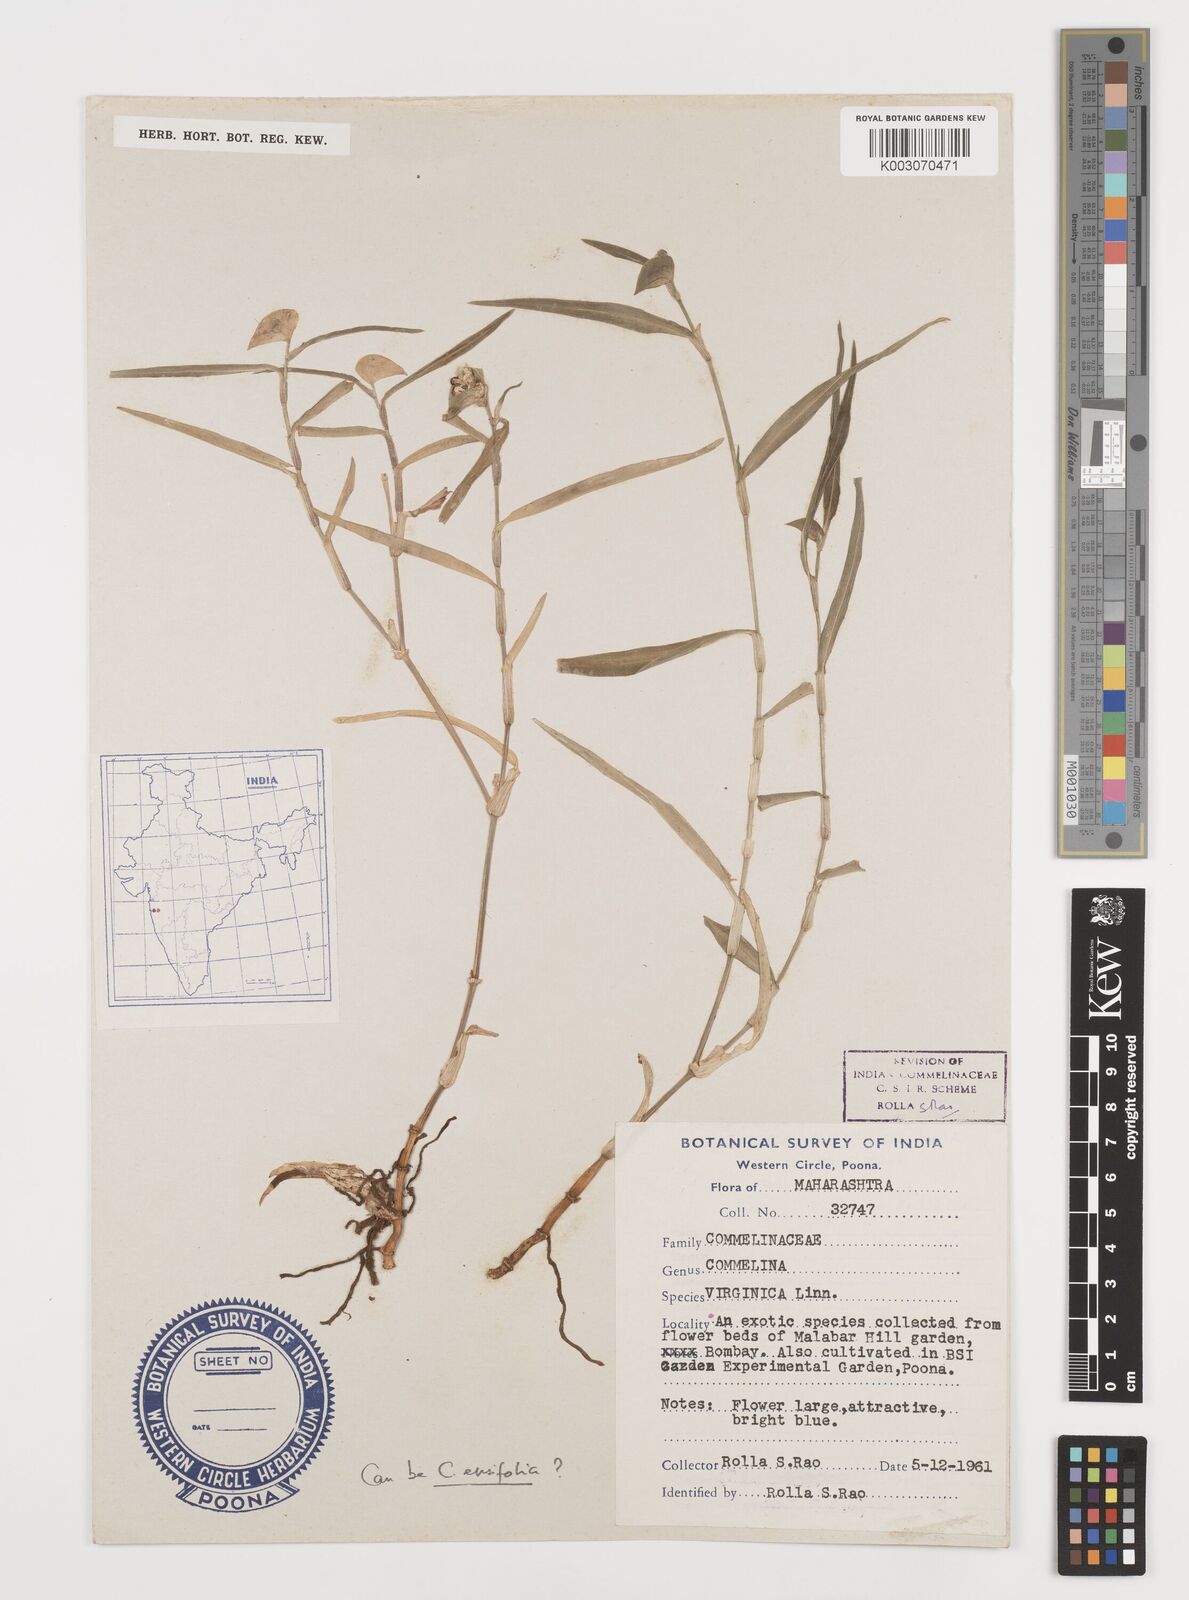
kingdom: Plantae
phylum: Tracheophyta
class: Liliopsida
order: Commelinales
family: Commelinaceae
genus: Commelina
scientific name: Commelina virginica
